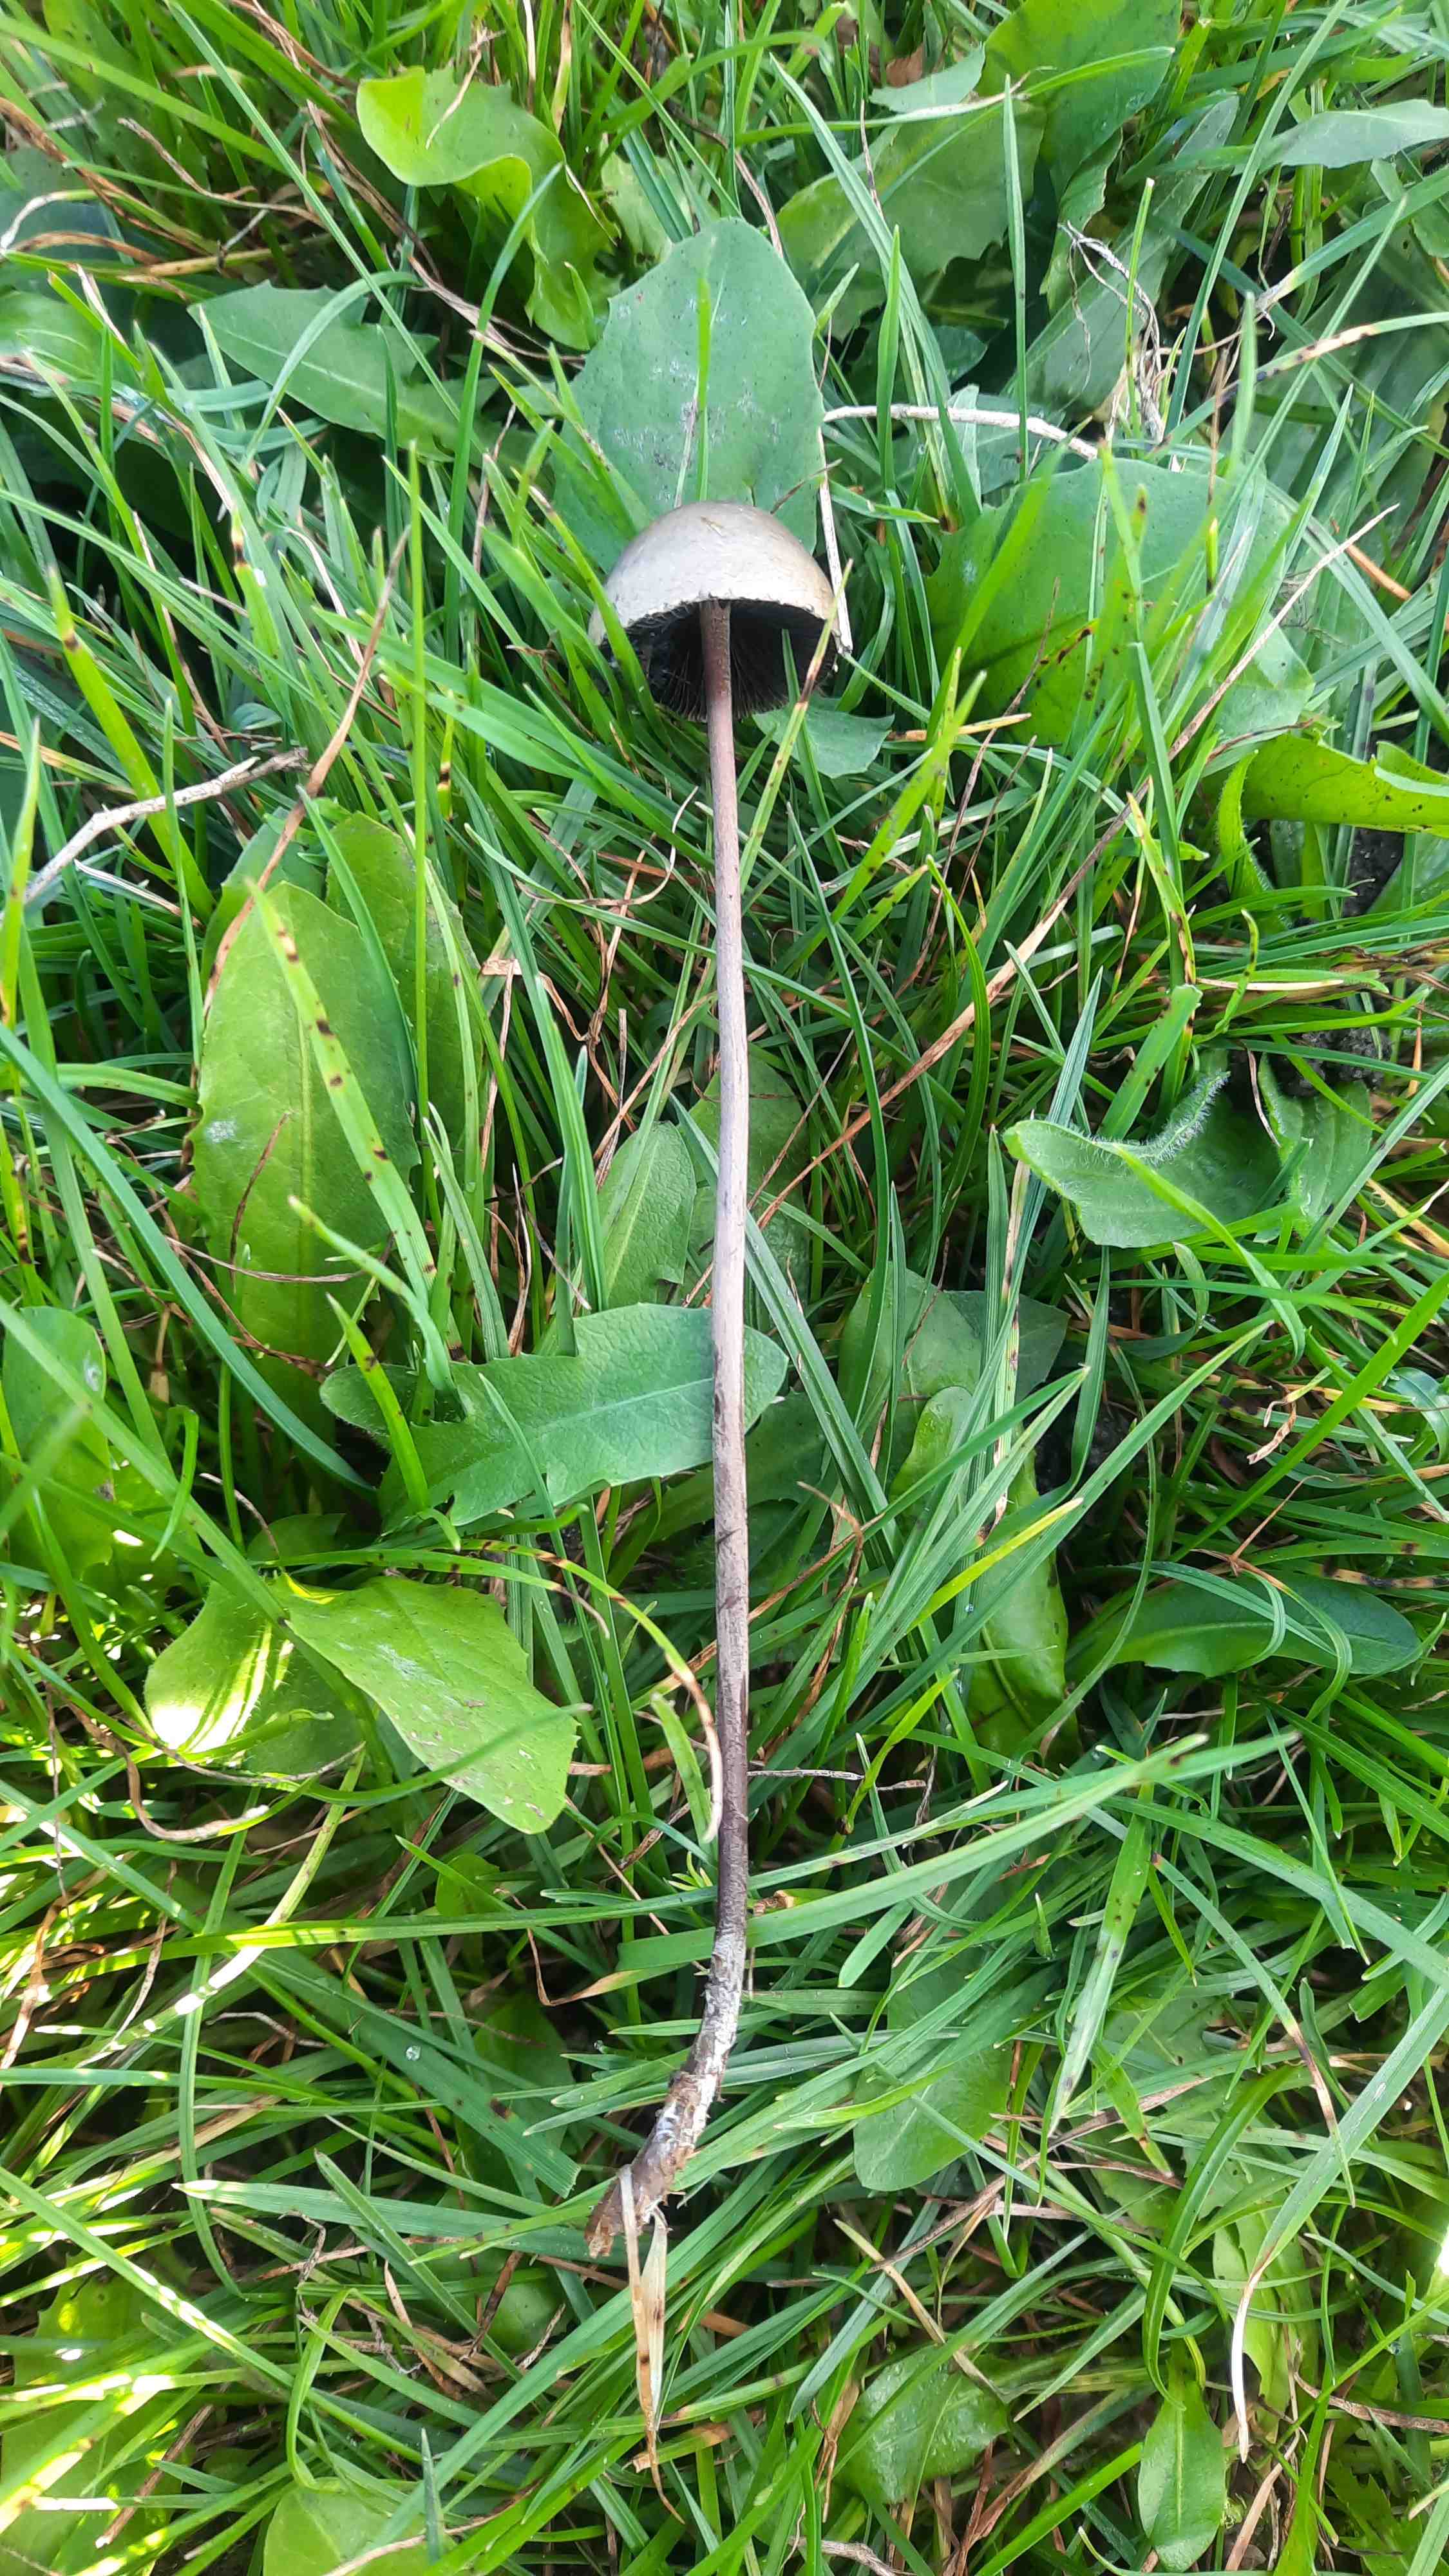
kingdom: Fungi
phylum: Basidiomycota
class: Agaricomycetes
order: Agaricales
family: Bolbitiaceae
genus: Panaeolus
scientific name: Panaeolus papilionaceus
